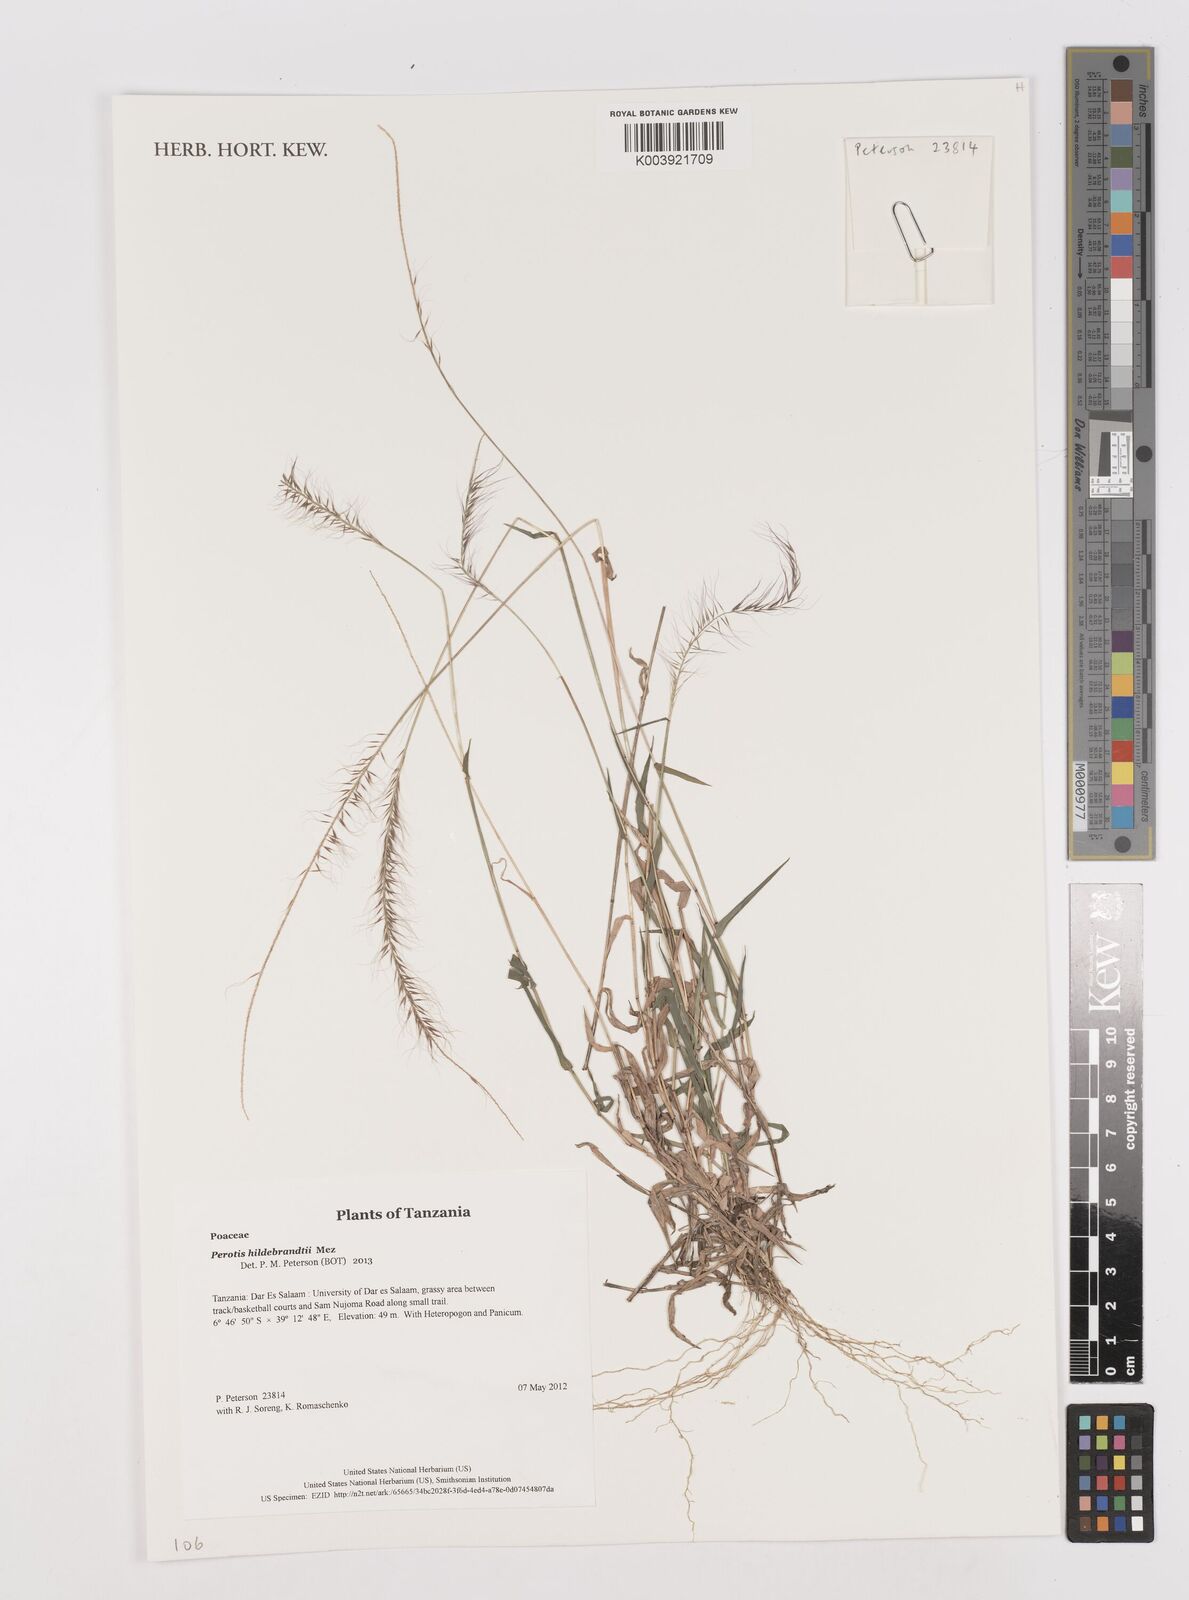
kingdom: Plantae
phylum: Tracheophyta
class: Liliopsida
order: Poales
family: Poaceae
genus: Perotis
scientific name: Perotis hildebrandtii
